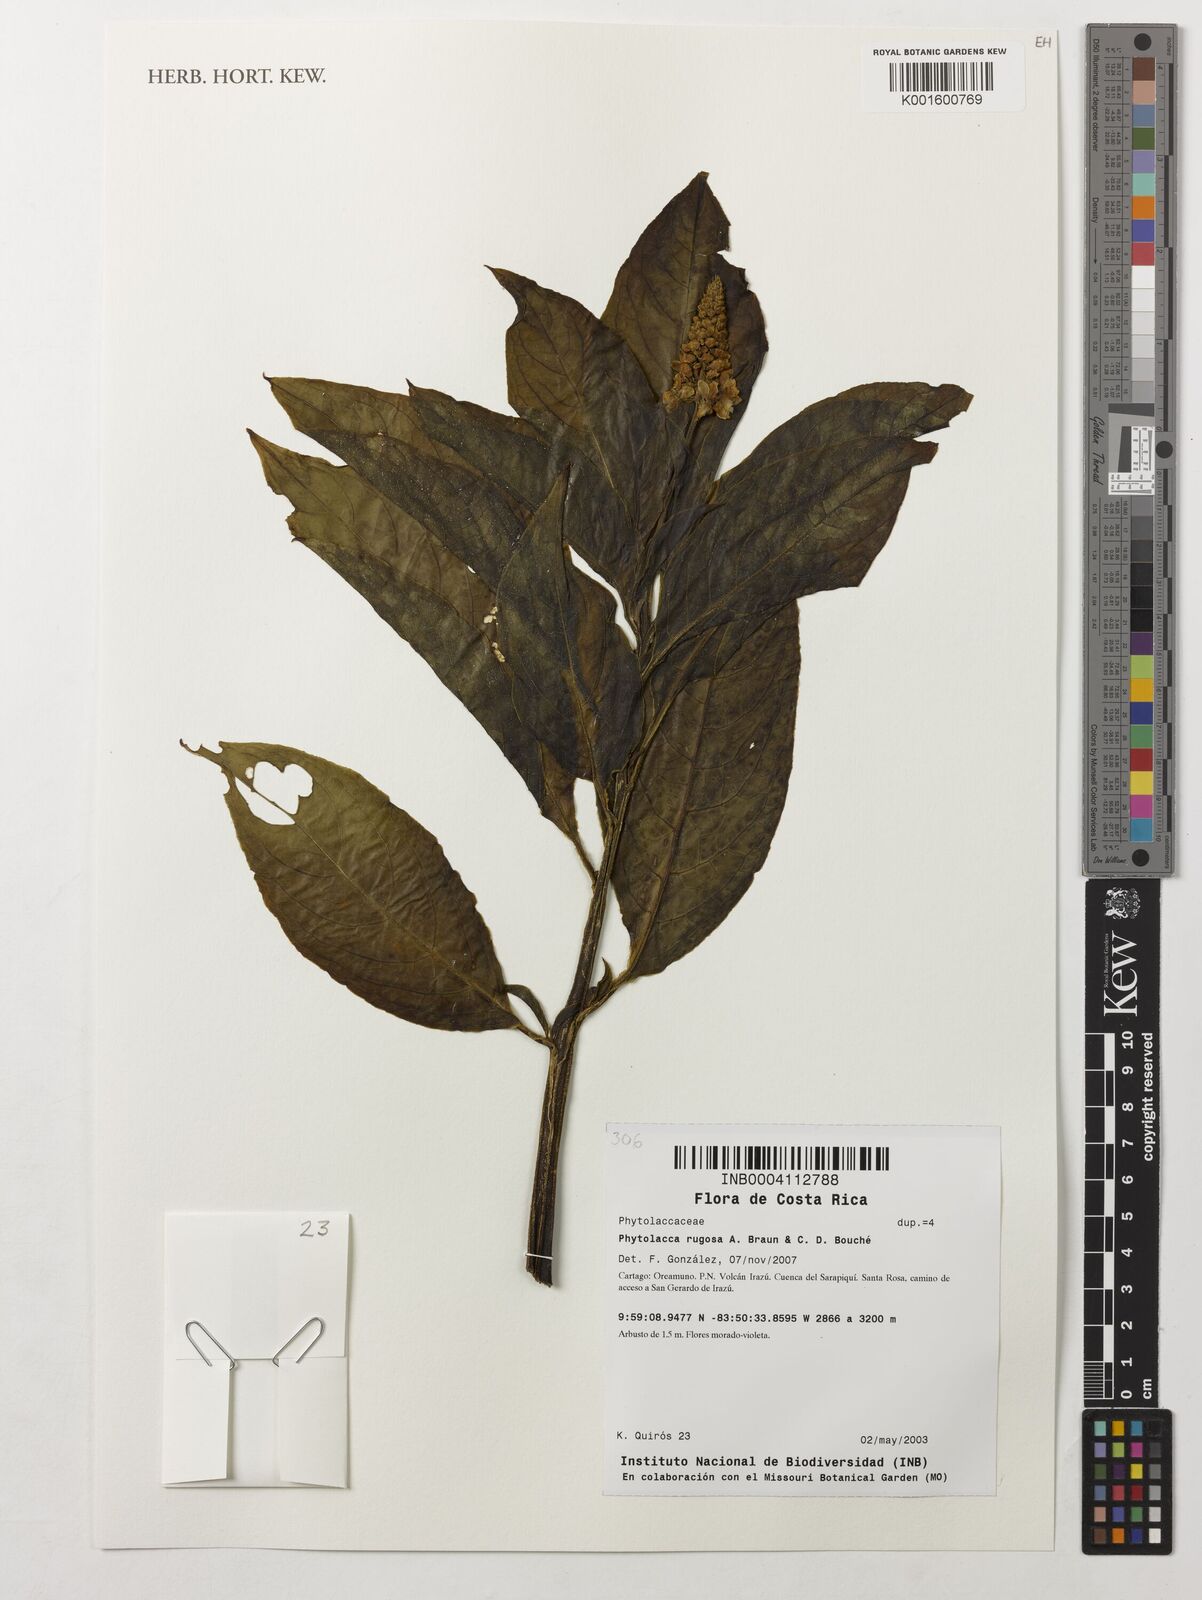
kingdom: Plantae
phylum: Tracheophyta
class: Magnoliopsida
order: Caryophyllales
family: Phytolaccaceae
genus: Phytolacca
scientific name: Phytolacca rugosa
